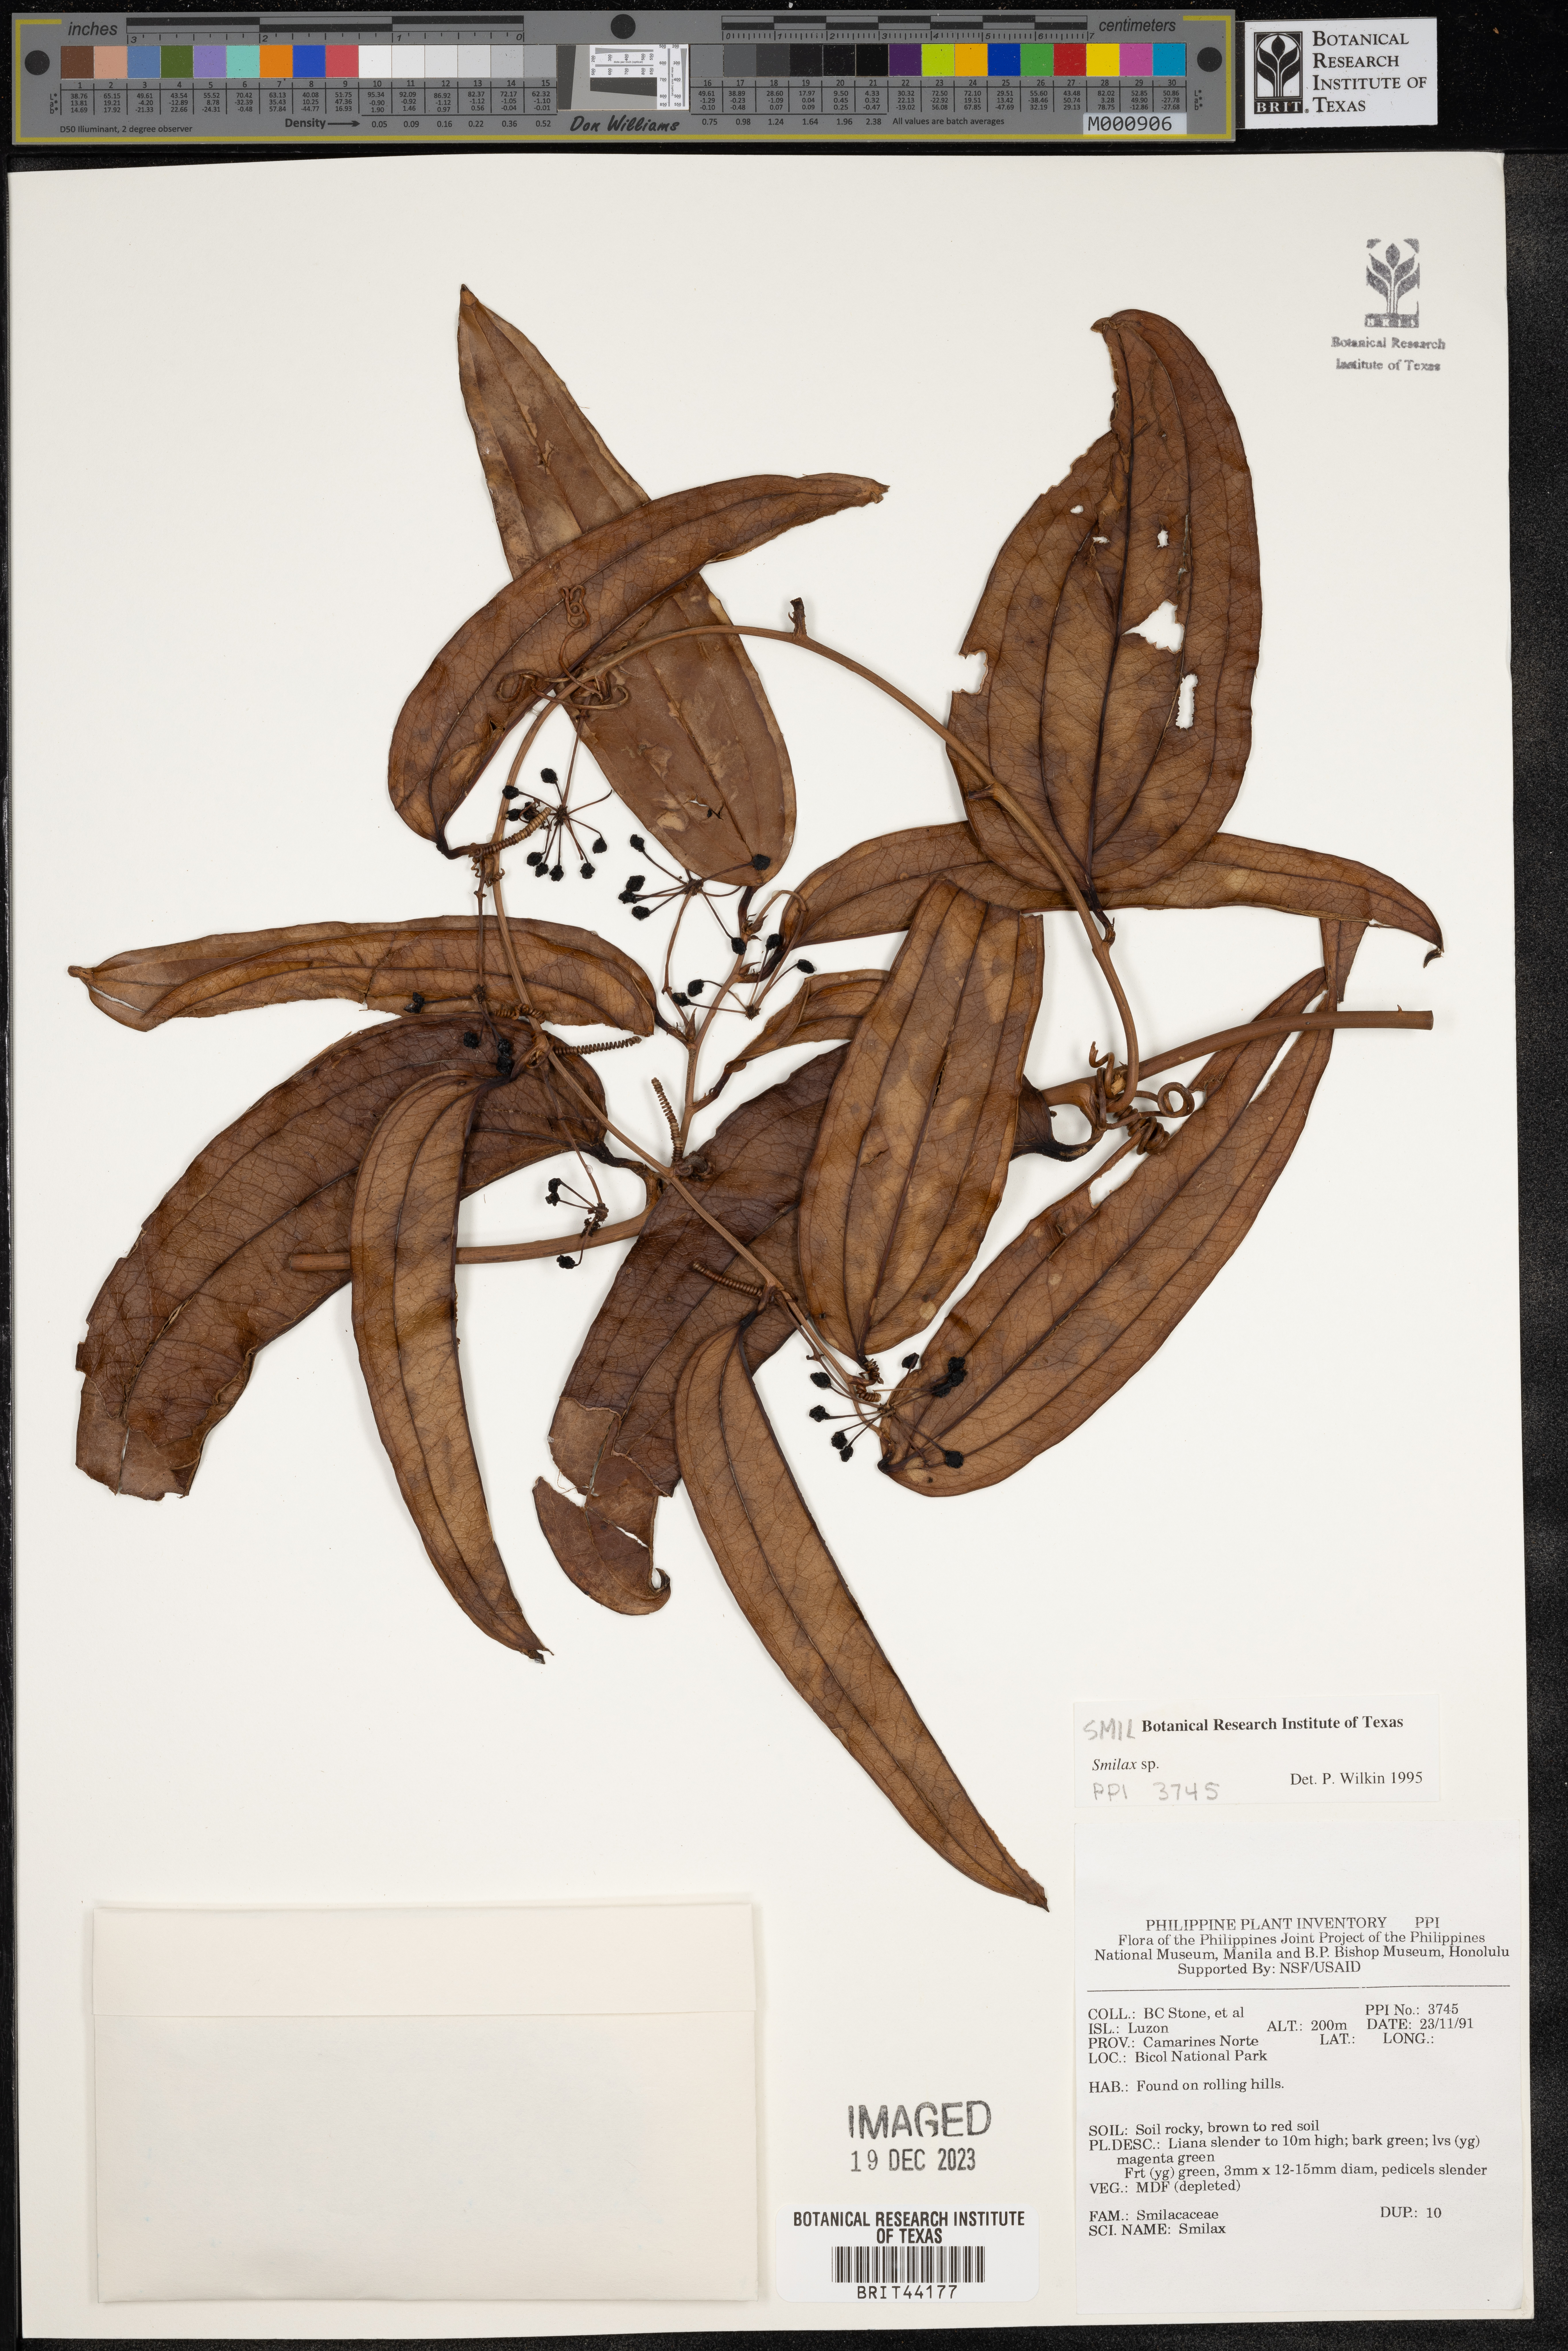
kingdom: Plantae
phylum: Tracheophyta
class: Liliopsida
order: Liliales
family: Smilacaceae
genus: Smilax
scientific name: Smilax
